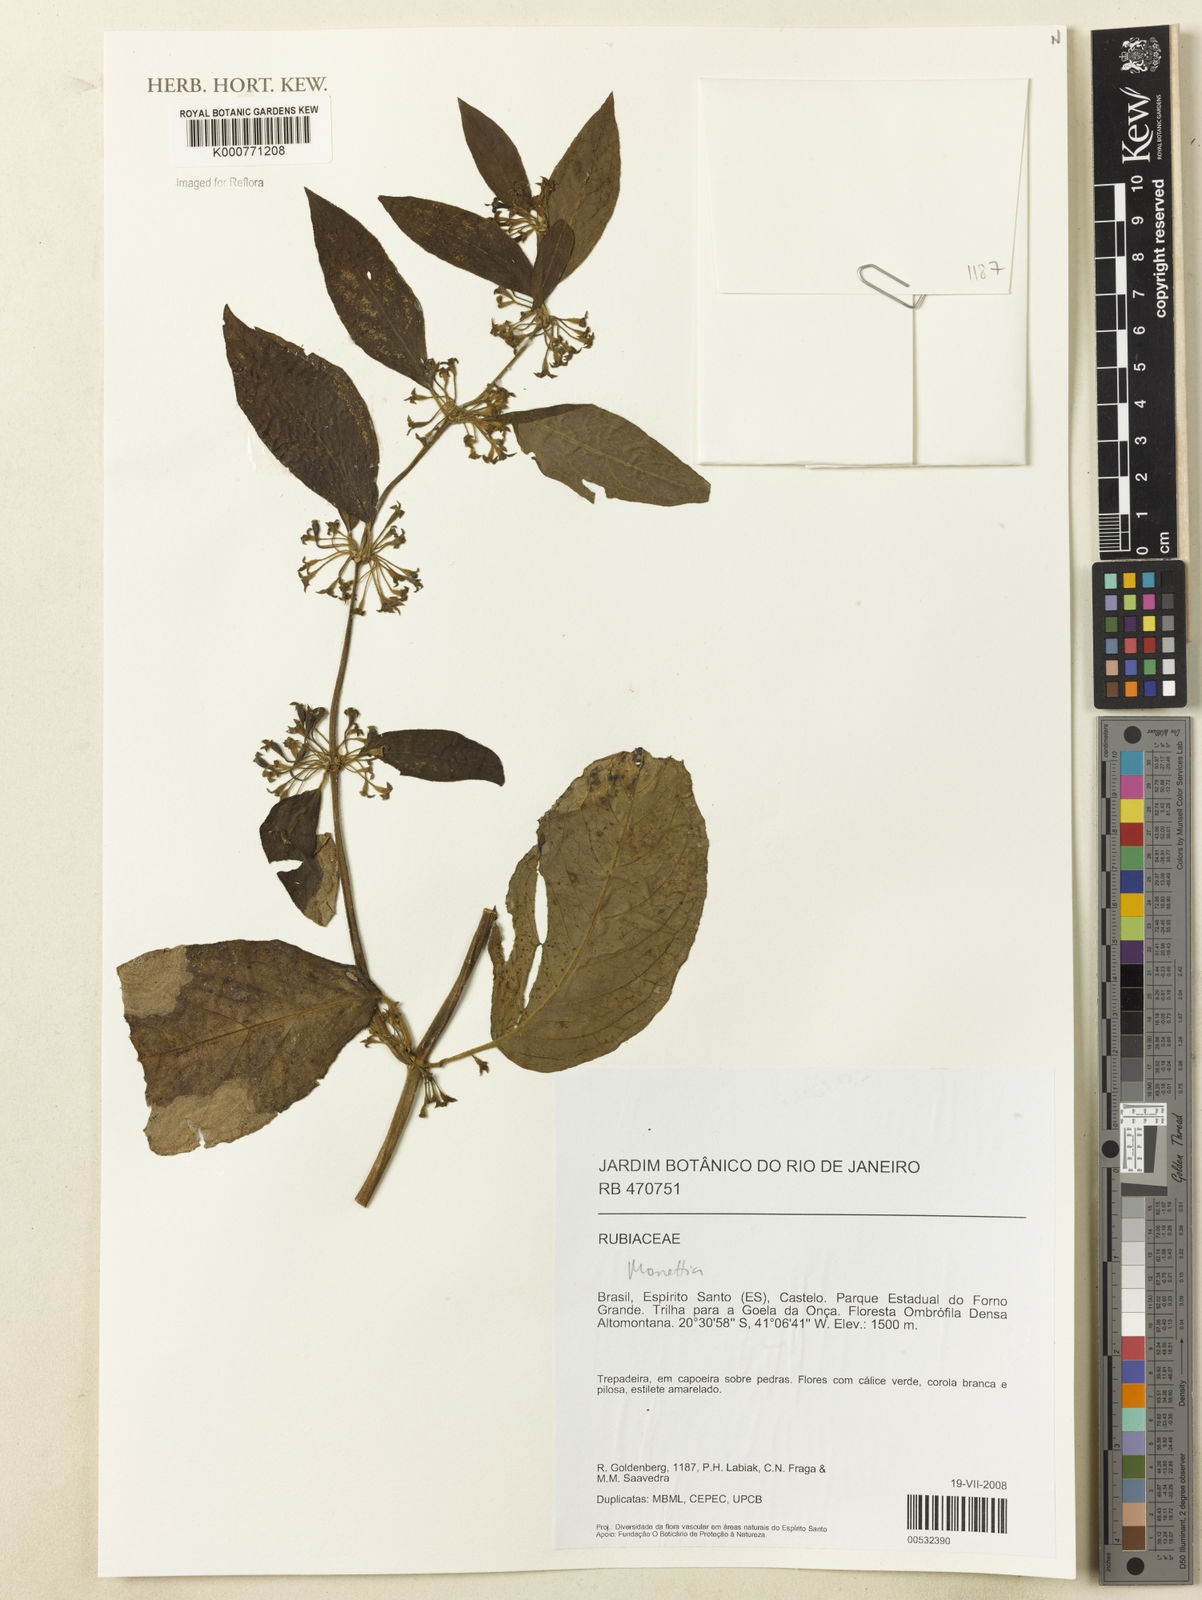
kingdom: Plantae
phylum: Tracheophyta
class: Magnoliopsida
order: Gentianales
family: Rubiaceae
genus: Psychotria
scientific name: Psychotria
